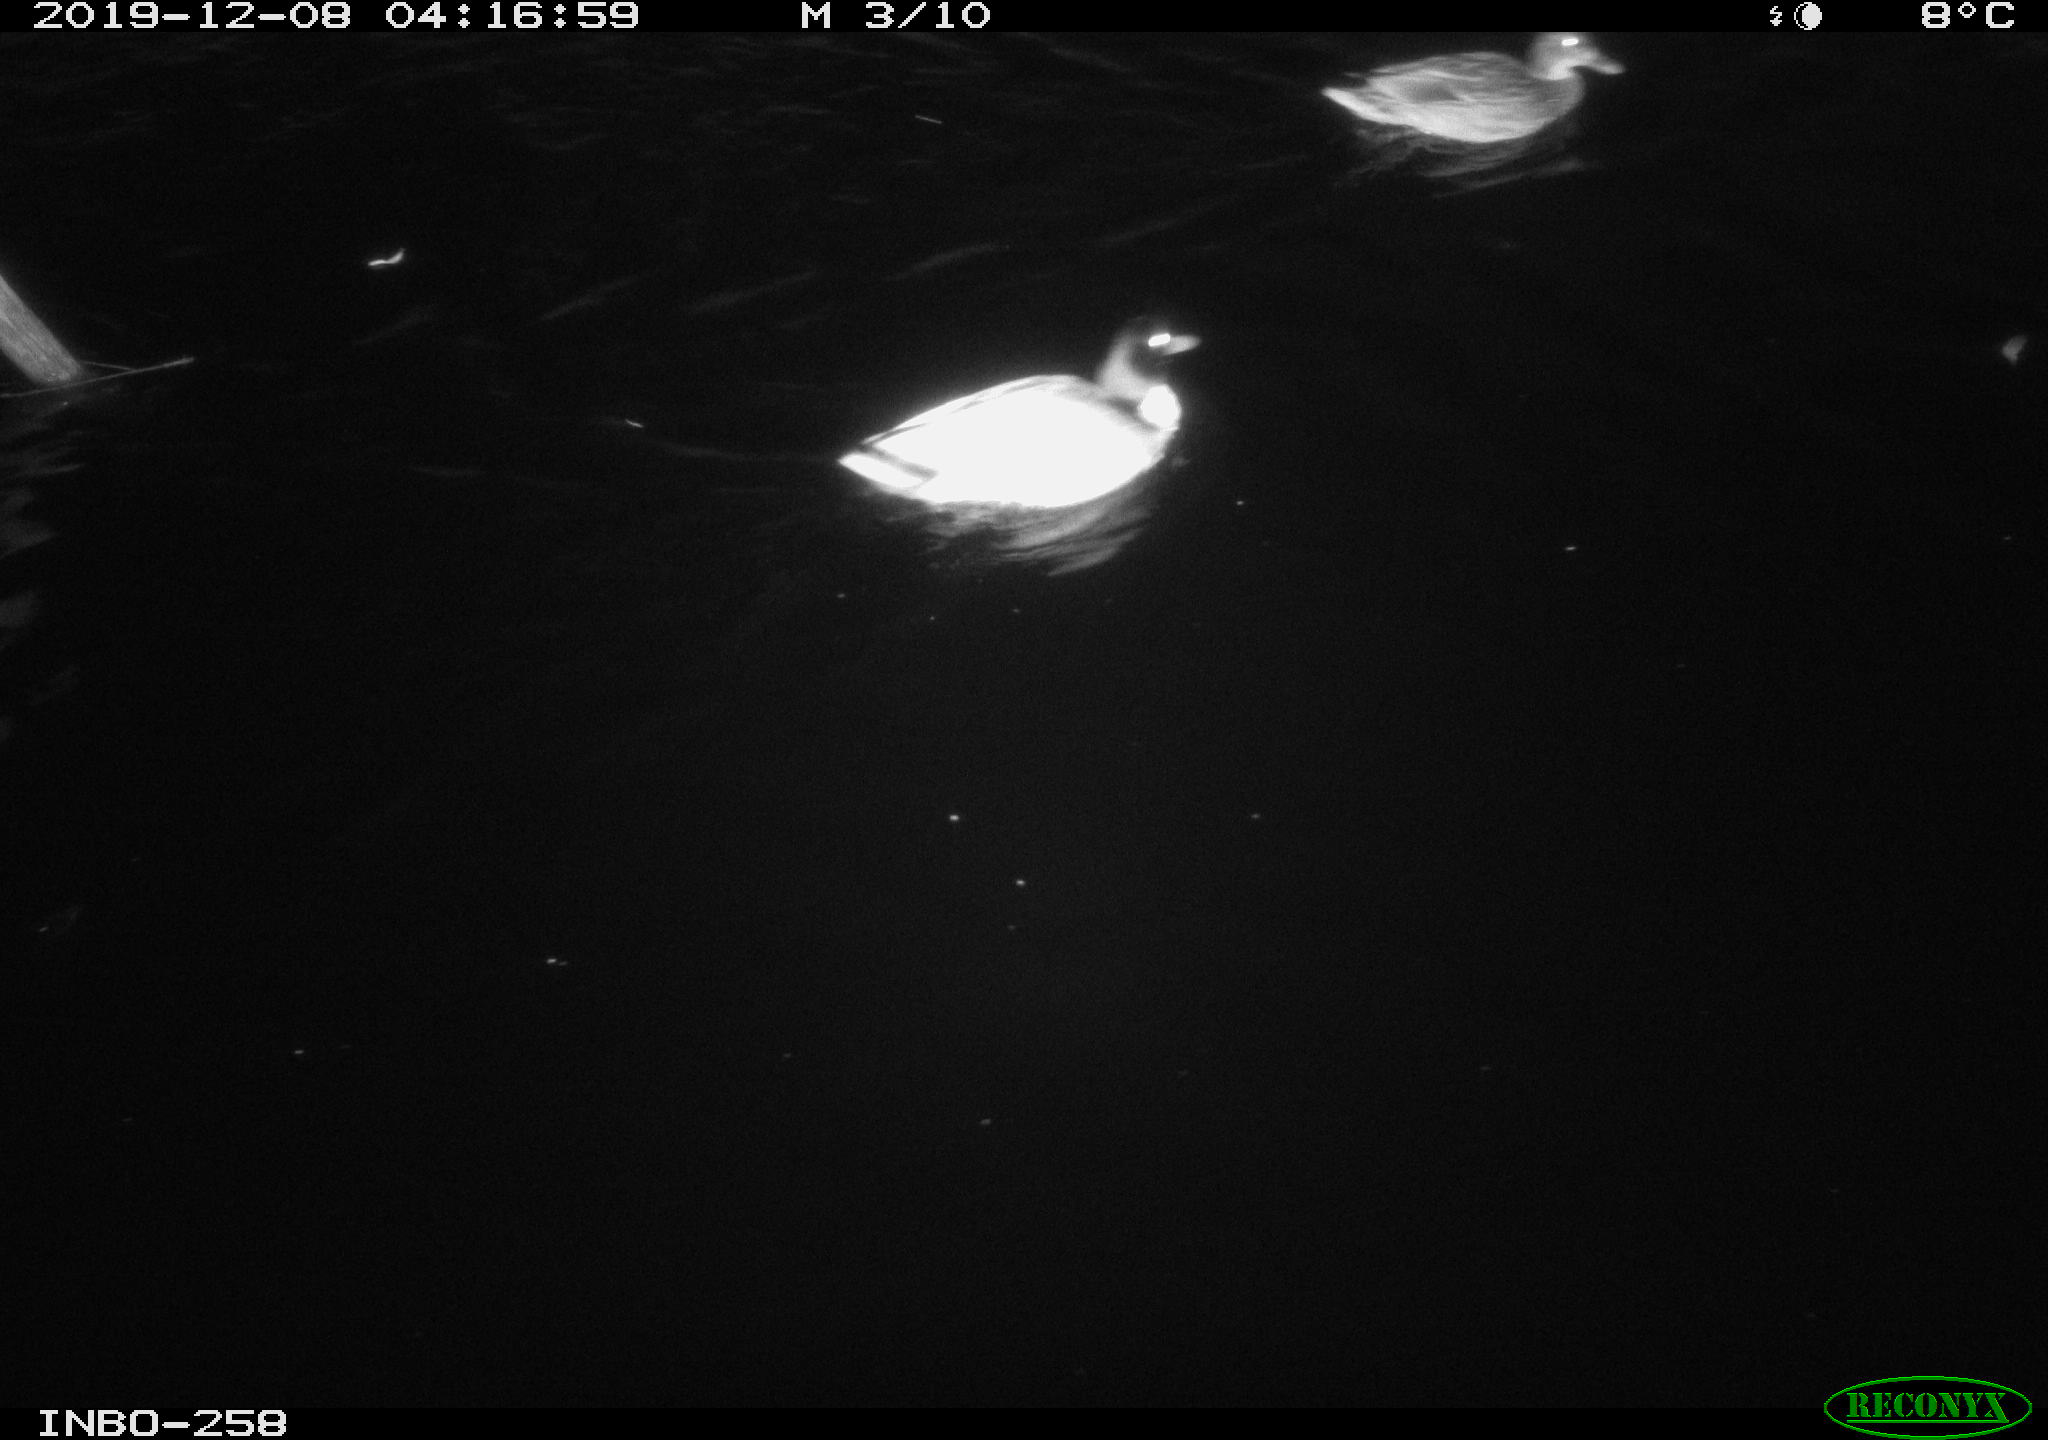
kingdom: Animalia
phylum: Chordata
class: Aves
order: Anseriformes
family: Anatidae
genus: Anas
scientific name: Anas platyrhynchos
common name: Mallard
